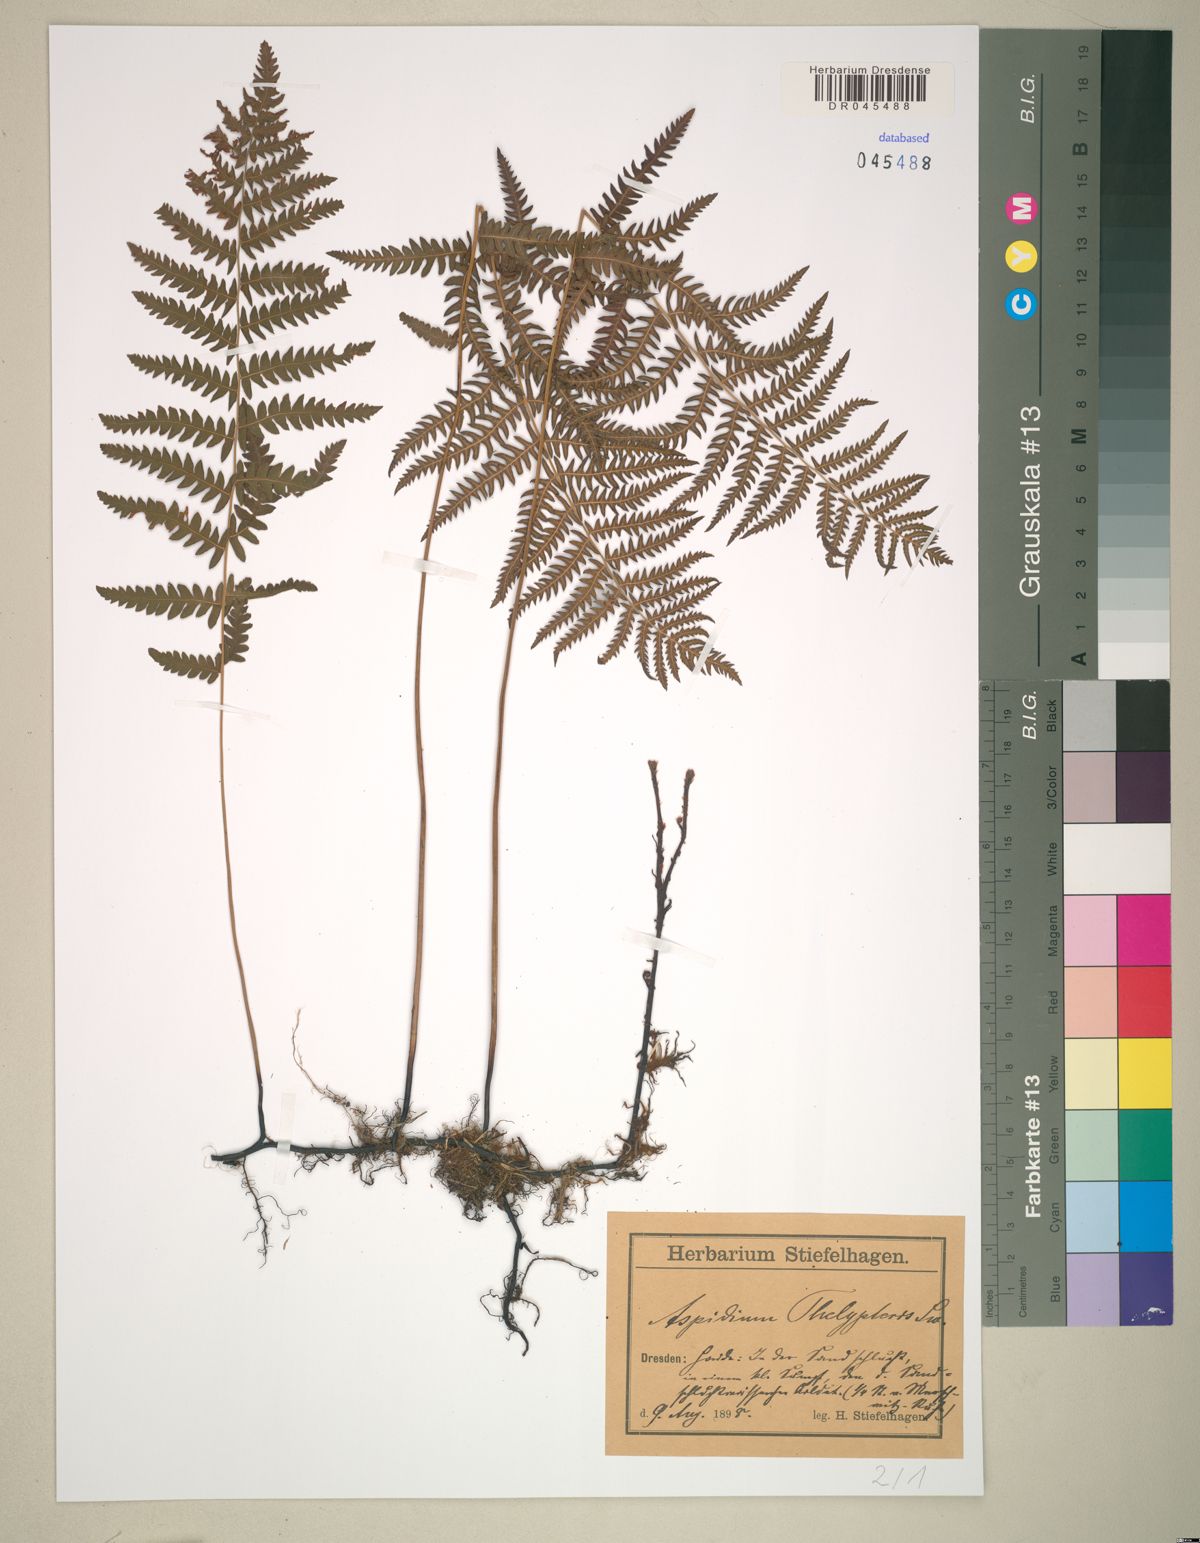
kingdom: Plantae
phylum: Tracheophyta
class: Polypodiopsida
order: Polypodiales
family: Thelypteridaceae
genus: Thelypteris
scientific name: Thelypteris palustris
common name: Marsh fern
